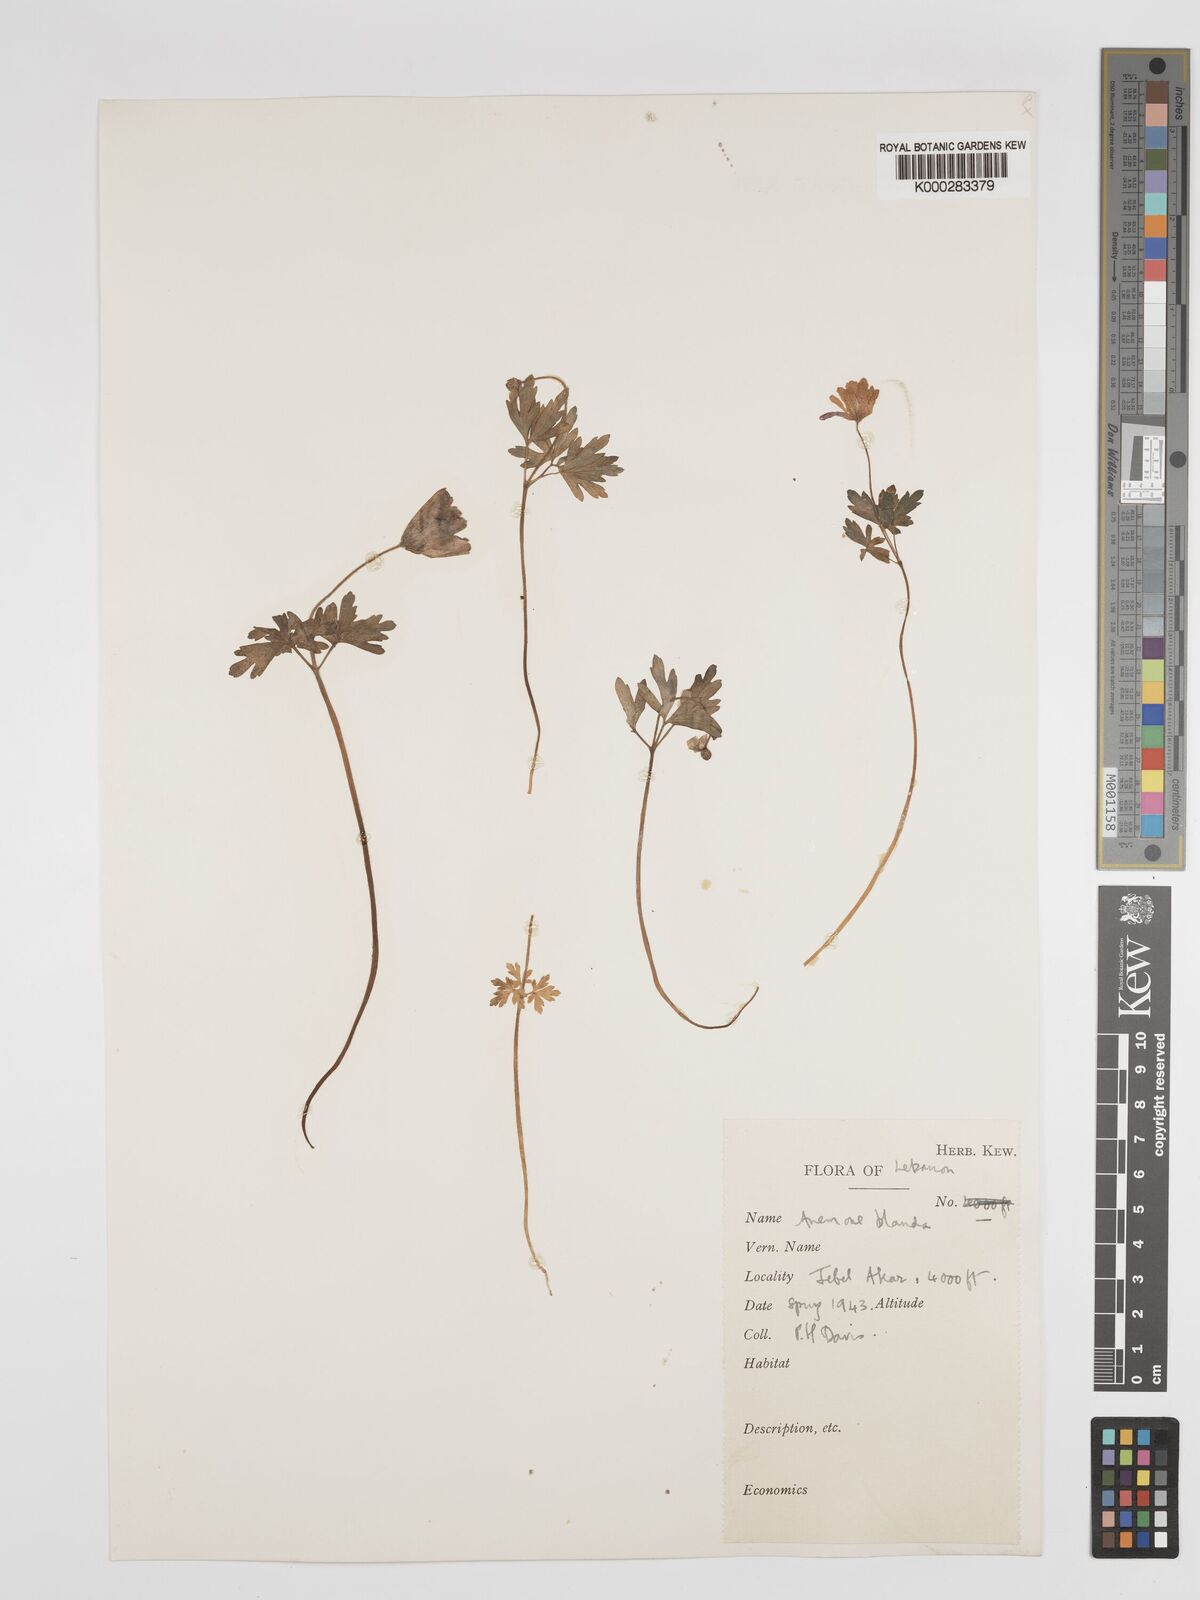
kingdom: Plantae
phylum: Tracheophyta
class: Magnoliopsida
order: Ranunculales
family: Ranunculaceae
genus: Anemone
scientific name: Anemone blanda
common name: Balkan anemone
